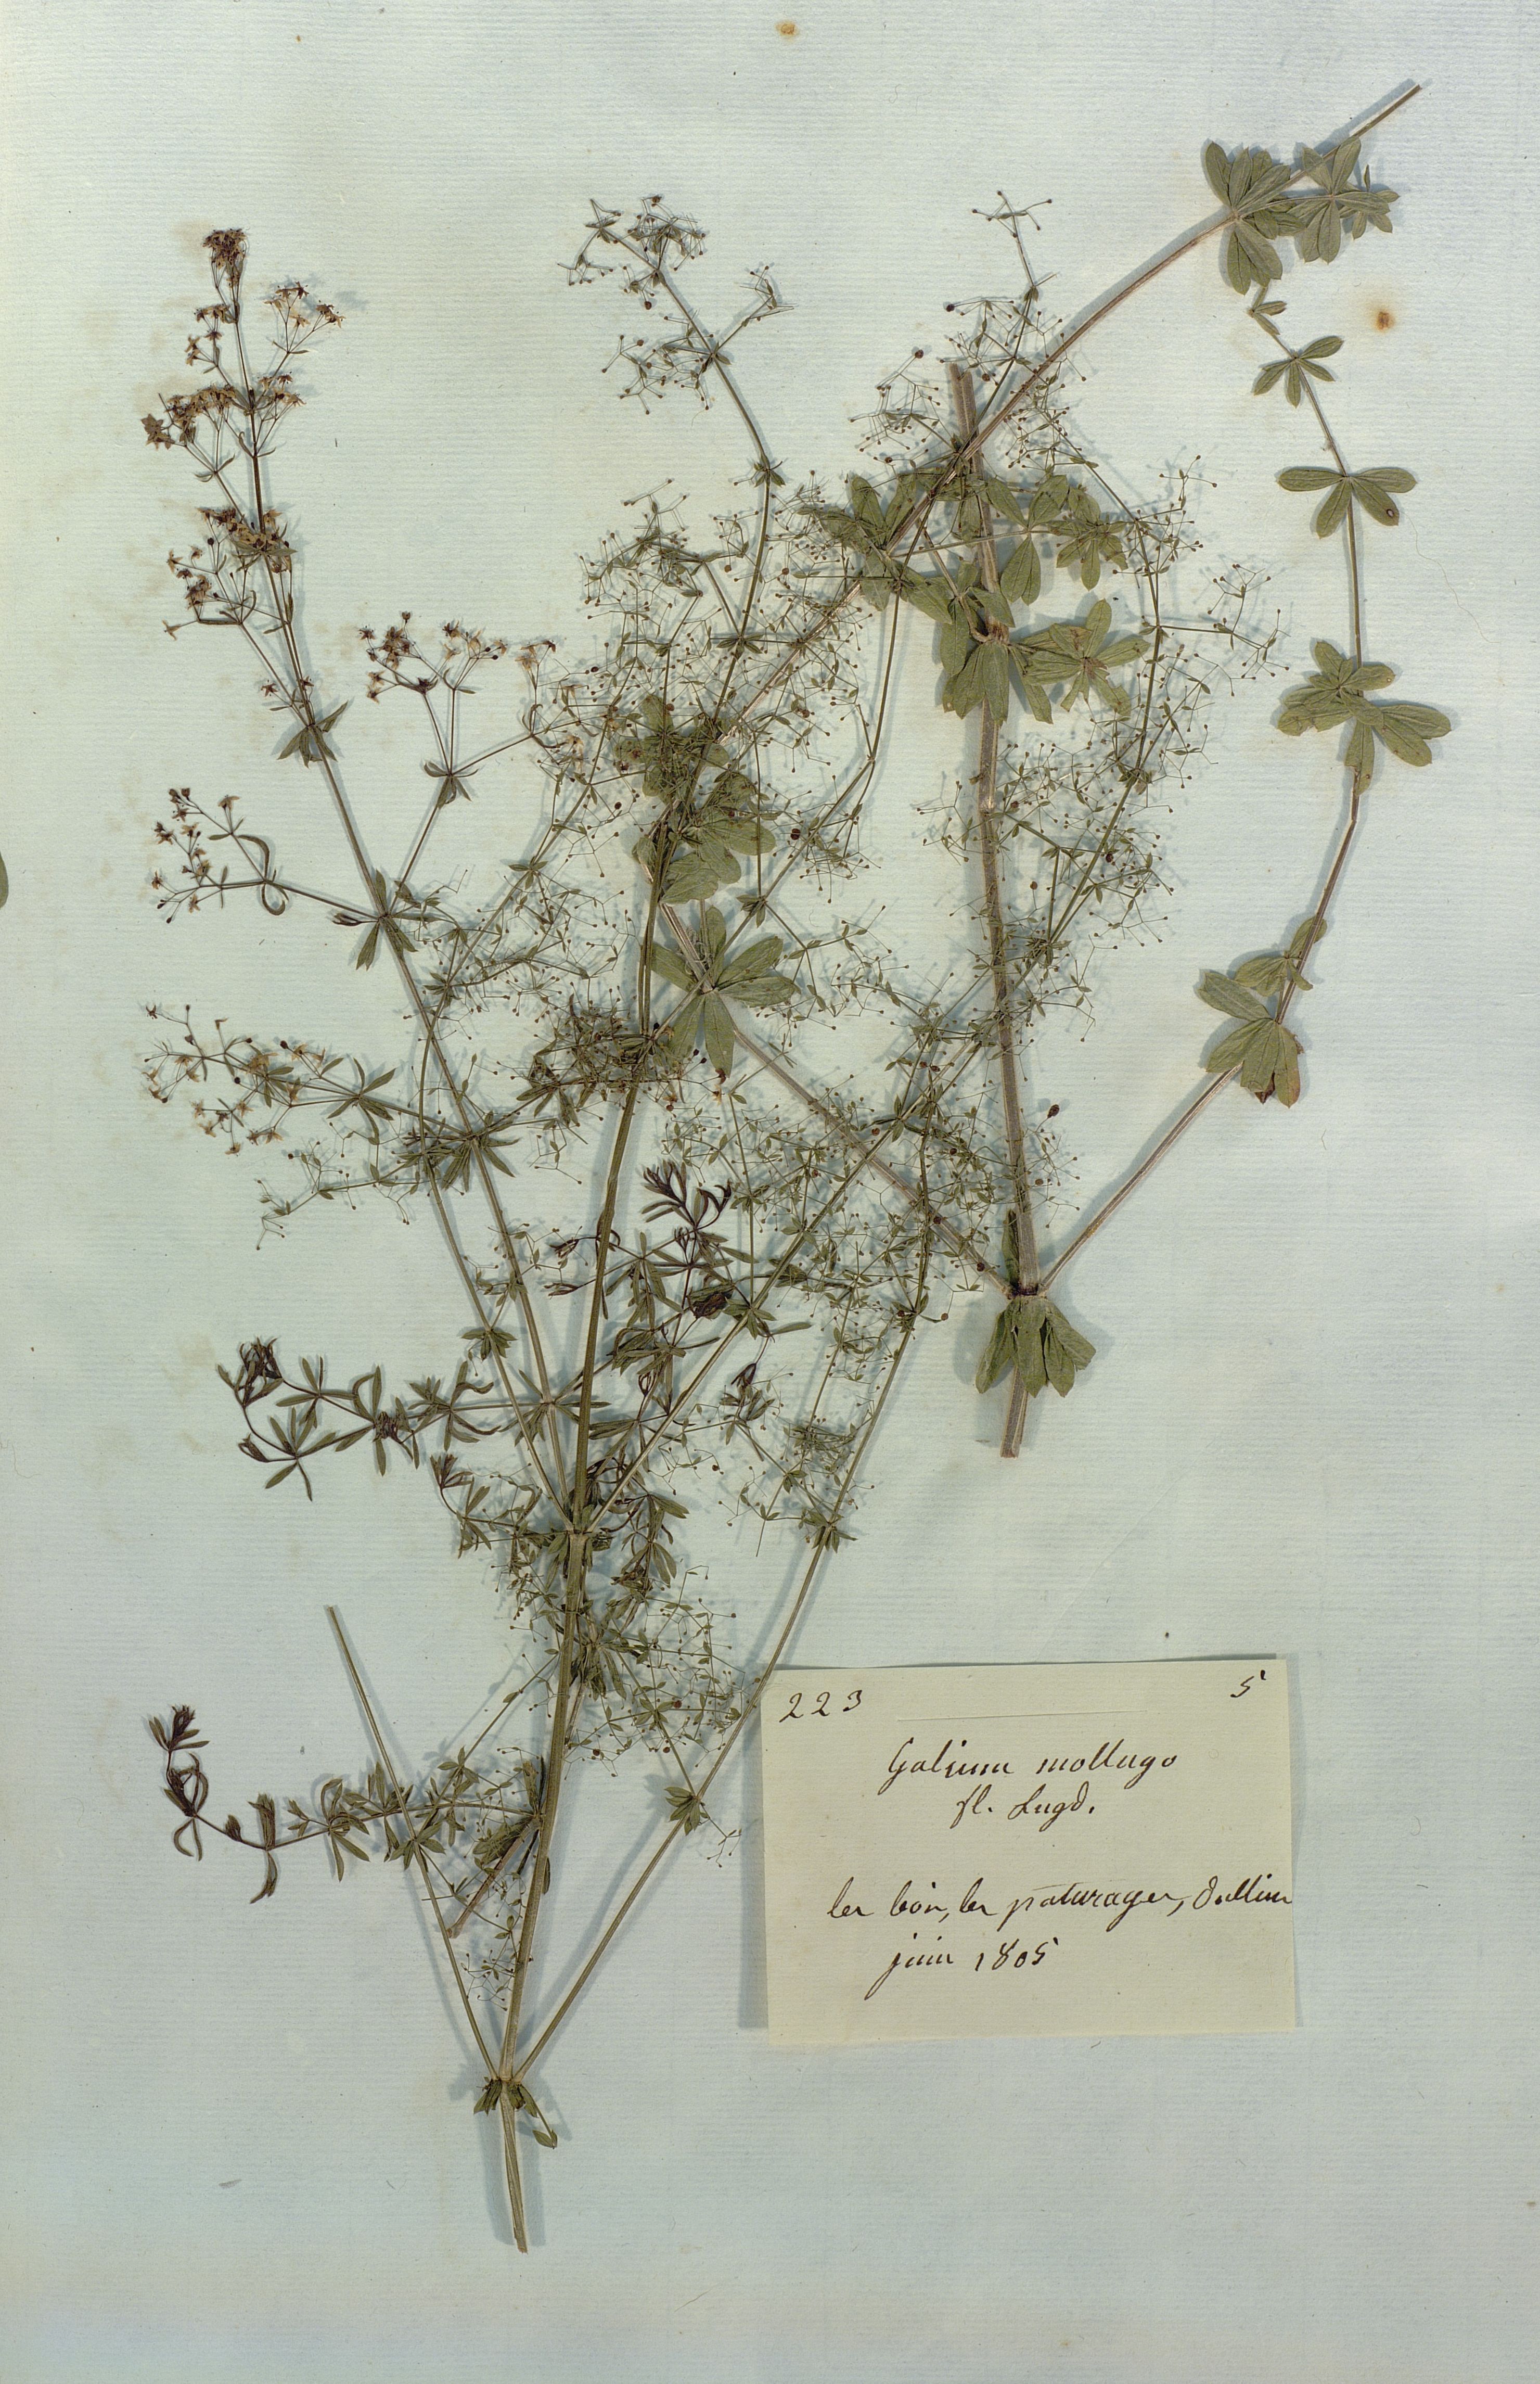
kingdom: Plantae
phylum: Tracheophyta
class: Magnoliopsida
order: Gentianales
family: Rubiaceae
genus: Galium
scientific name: Galium mollugo
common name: Hedge bedstraw
